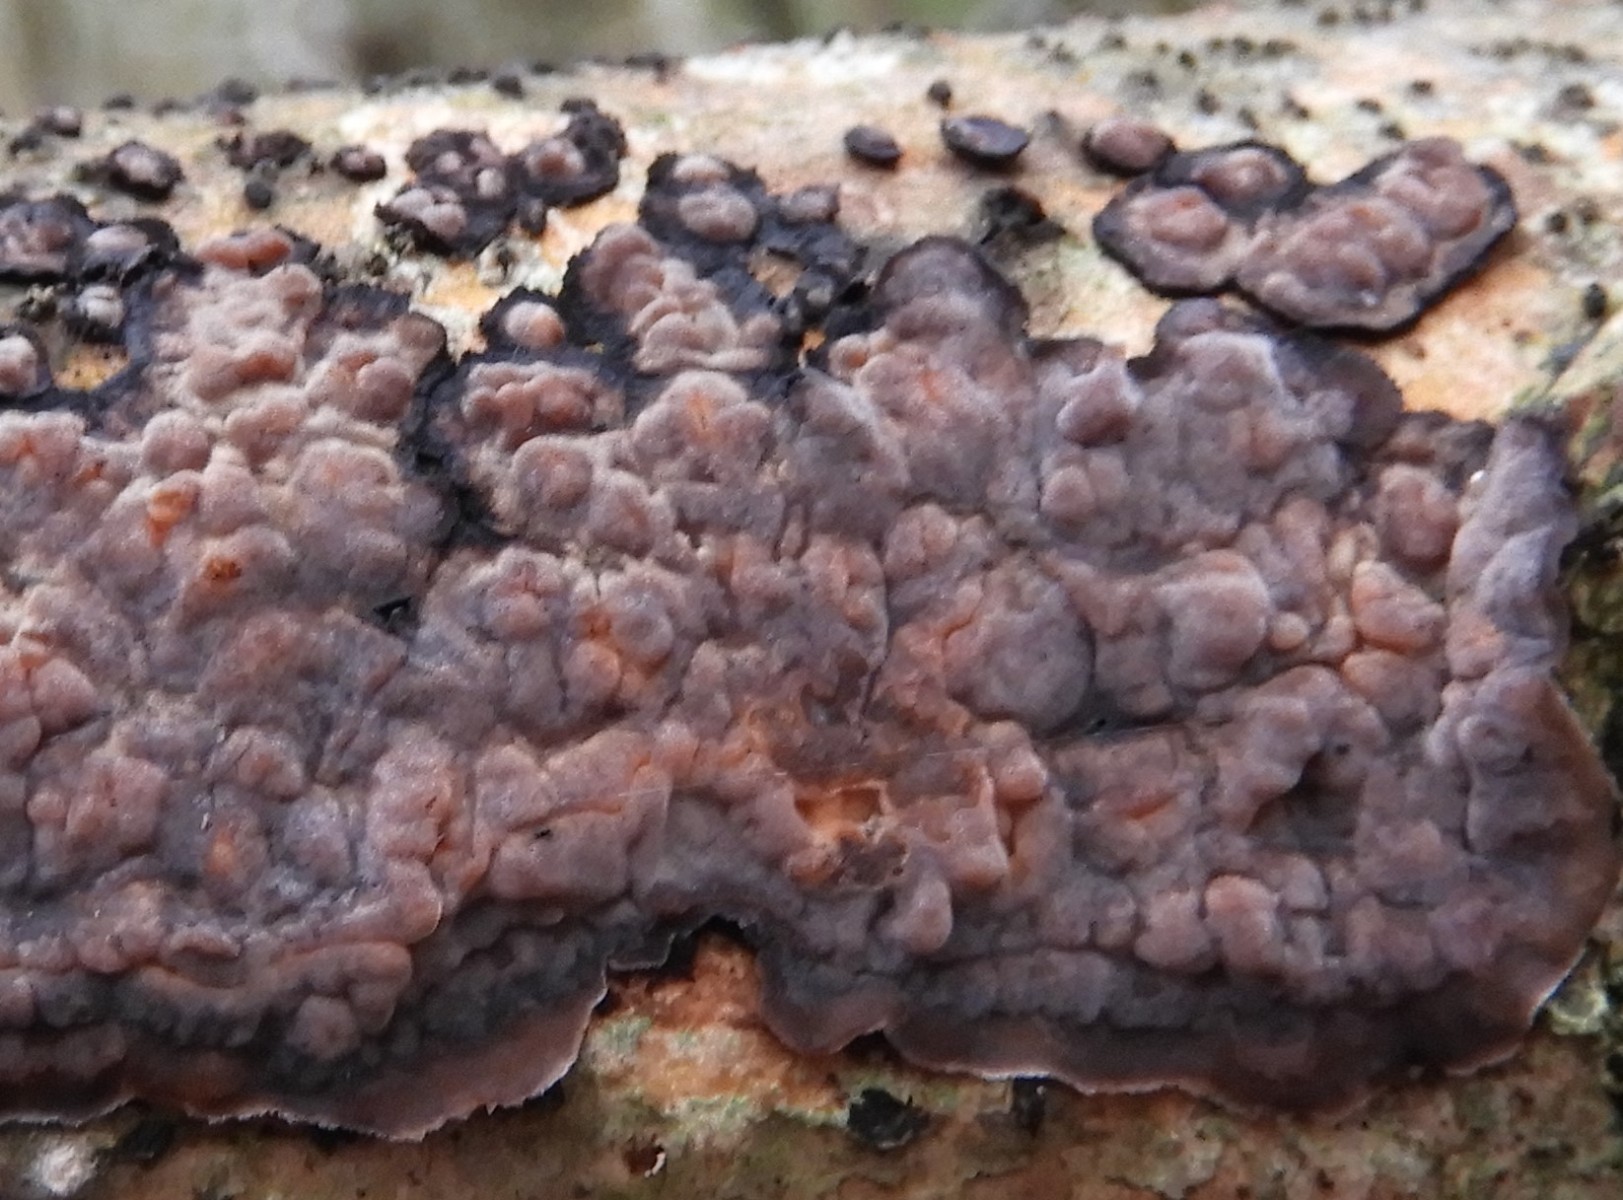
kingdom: Fungi
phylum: Basidiomycota
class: Agaricomycetes
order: Russulales
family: Peniophoraceae
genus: Peniophora
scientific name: Peniophora quercina
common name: ege-voksskind
